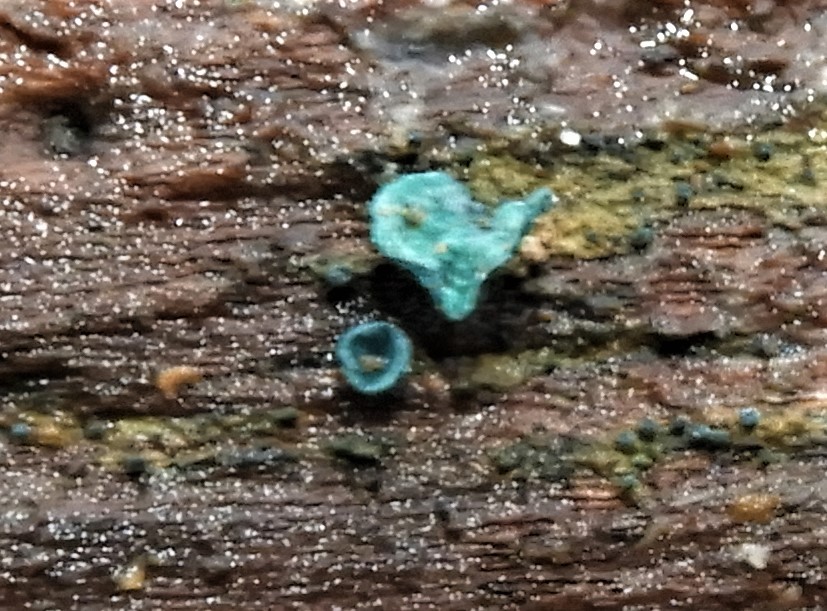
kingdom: Fungi
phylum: Ascomycota
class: Leotiomycetes
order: Helotiales
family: Chlorociboriaceae
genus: Chlorociboria
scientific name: Chlorociboria aeruginascens
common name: almindelig grønskive
